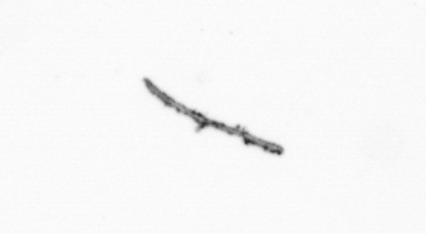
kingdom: Chromista
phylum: Ochrophyta
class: Bacillariophyceae
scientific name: Bacillariophyceae
